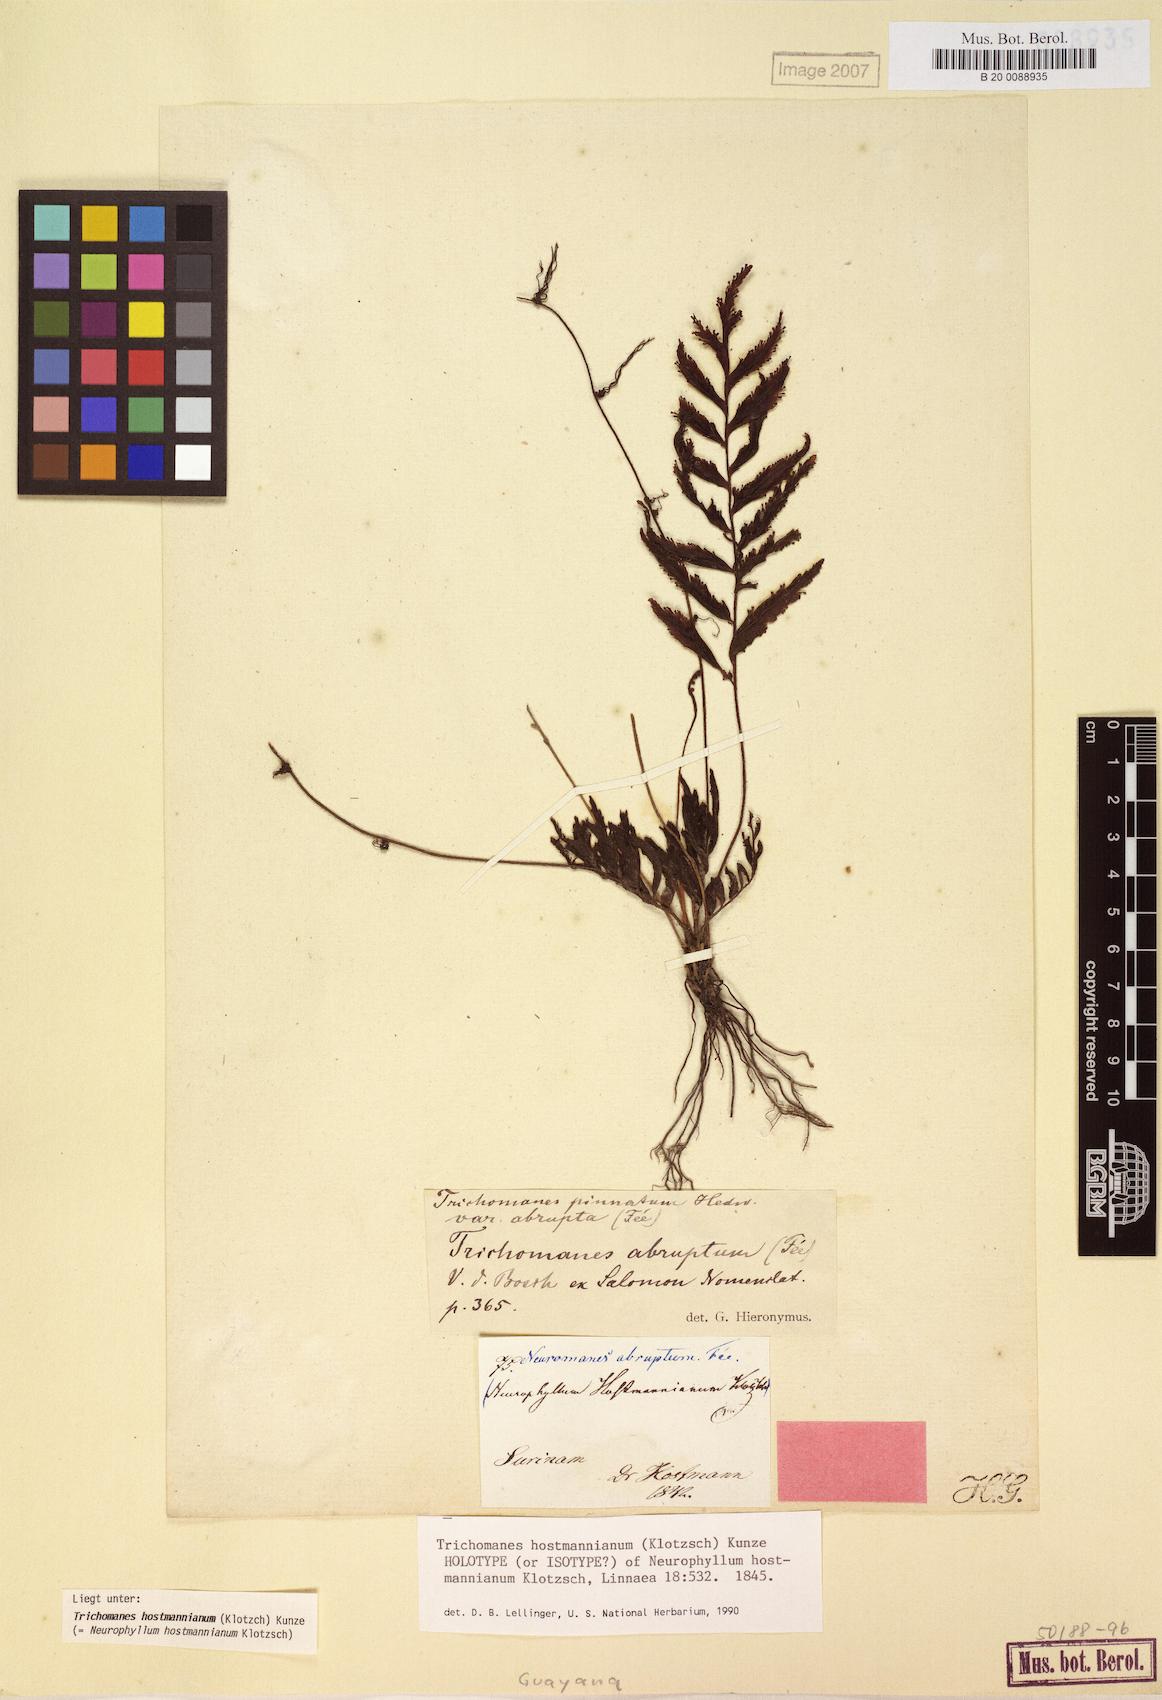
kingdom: Plantae
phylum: Tracheophyta
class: Polypodiopsida
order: Hymenophyllales
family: Hymenophyllaceae
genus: Trichomanes
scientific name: Trichomanes hostmannianum
